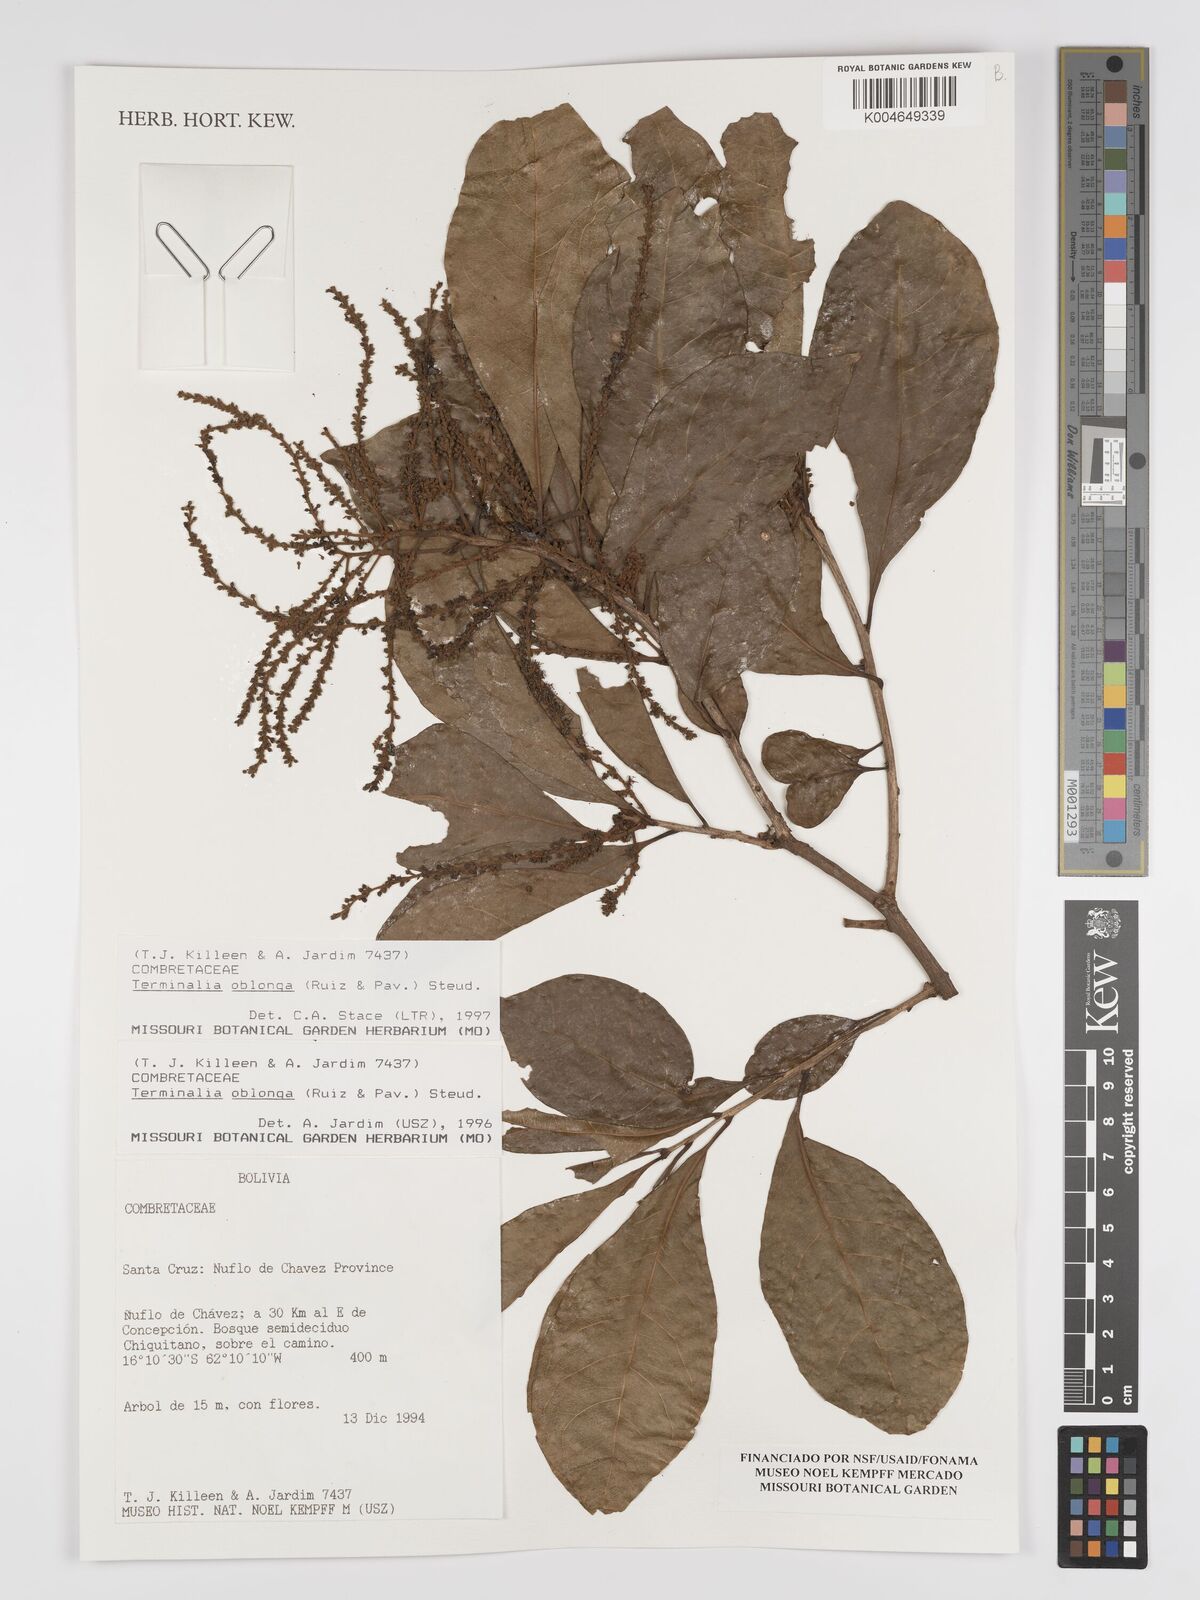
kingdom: Plantae
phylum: Tracheophyta
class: Magnoliopsida
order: Myrtales
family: Combretaceae
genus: Terminalia
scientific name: Terminalia oblonga
